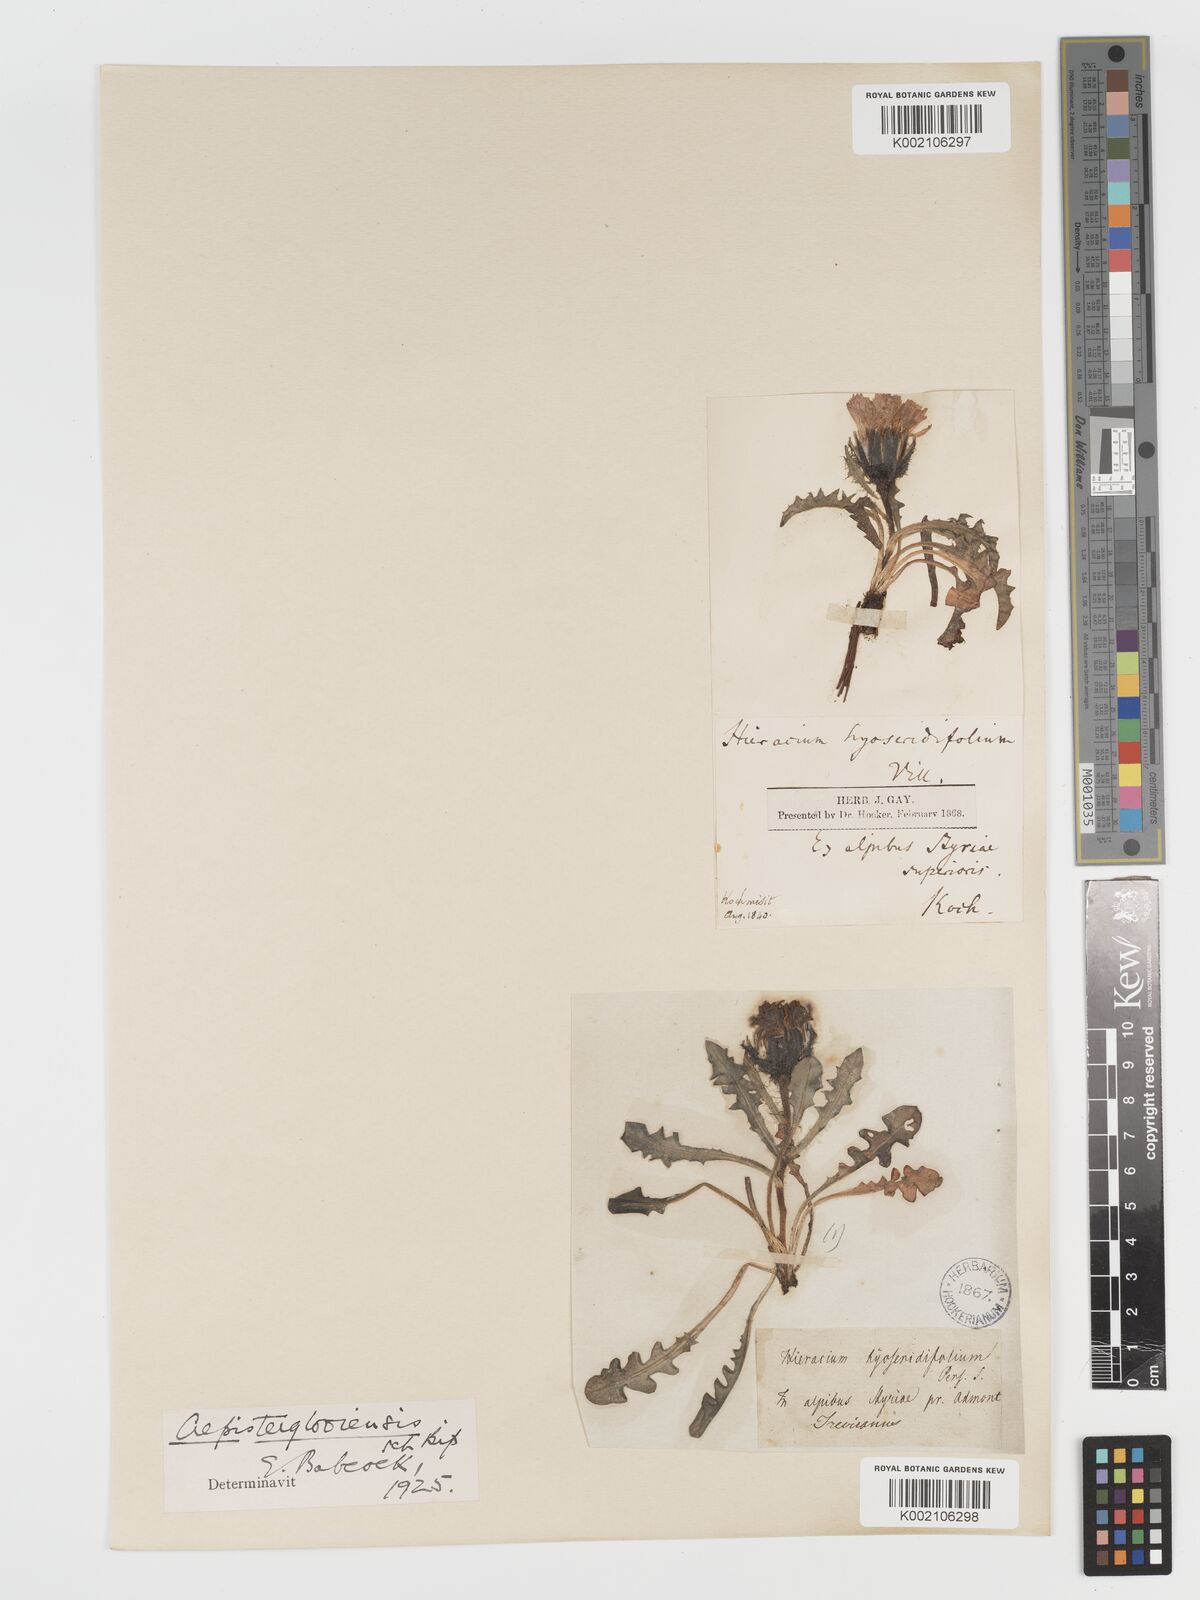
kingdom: Plantae
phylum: Tracheophyta
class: Magnoliopsida
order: Asterales
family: Asteraceae
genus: Crepis
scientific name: Crepis terglouensis
